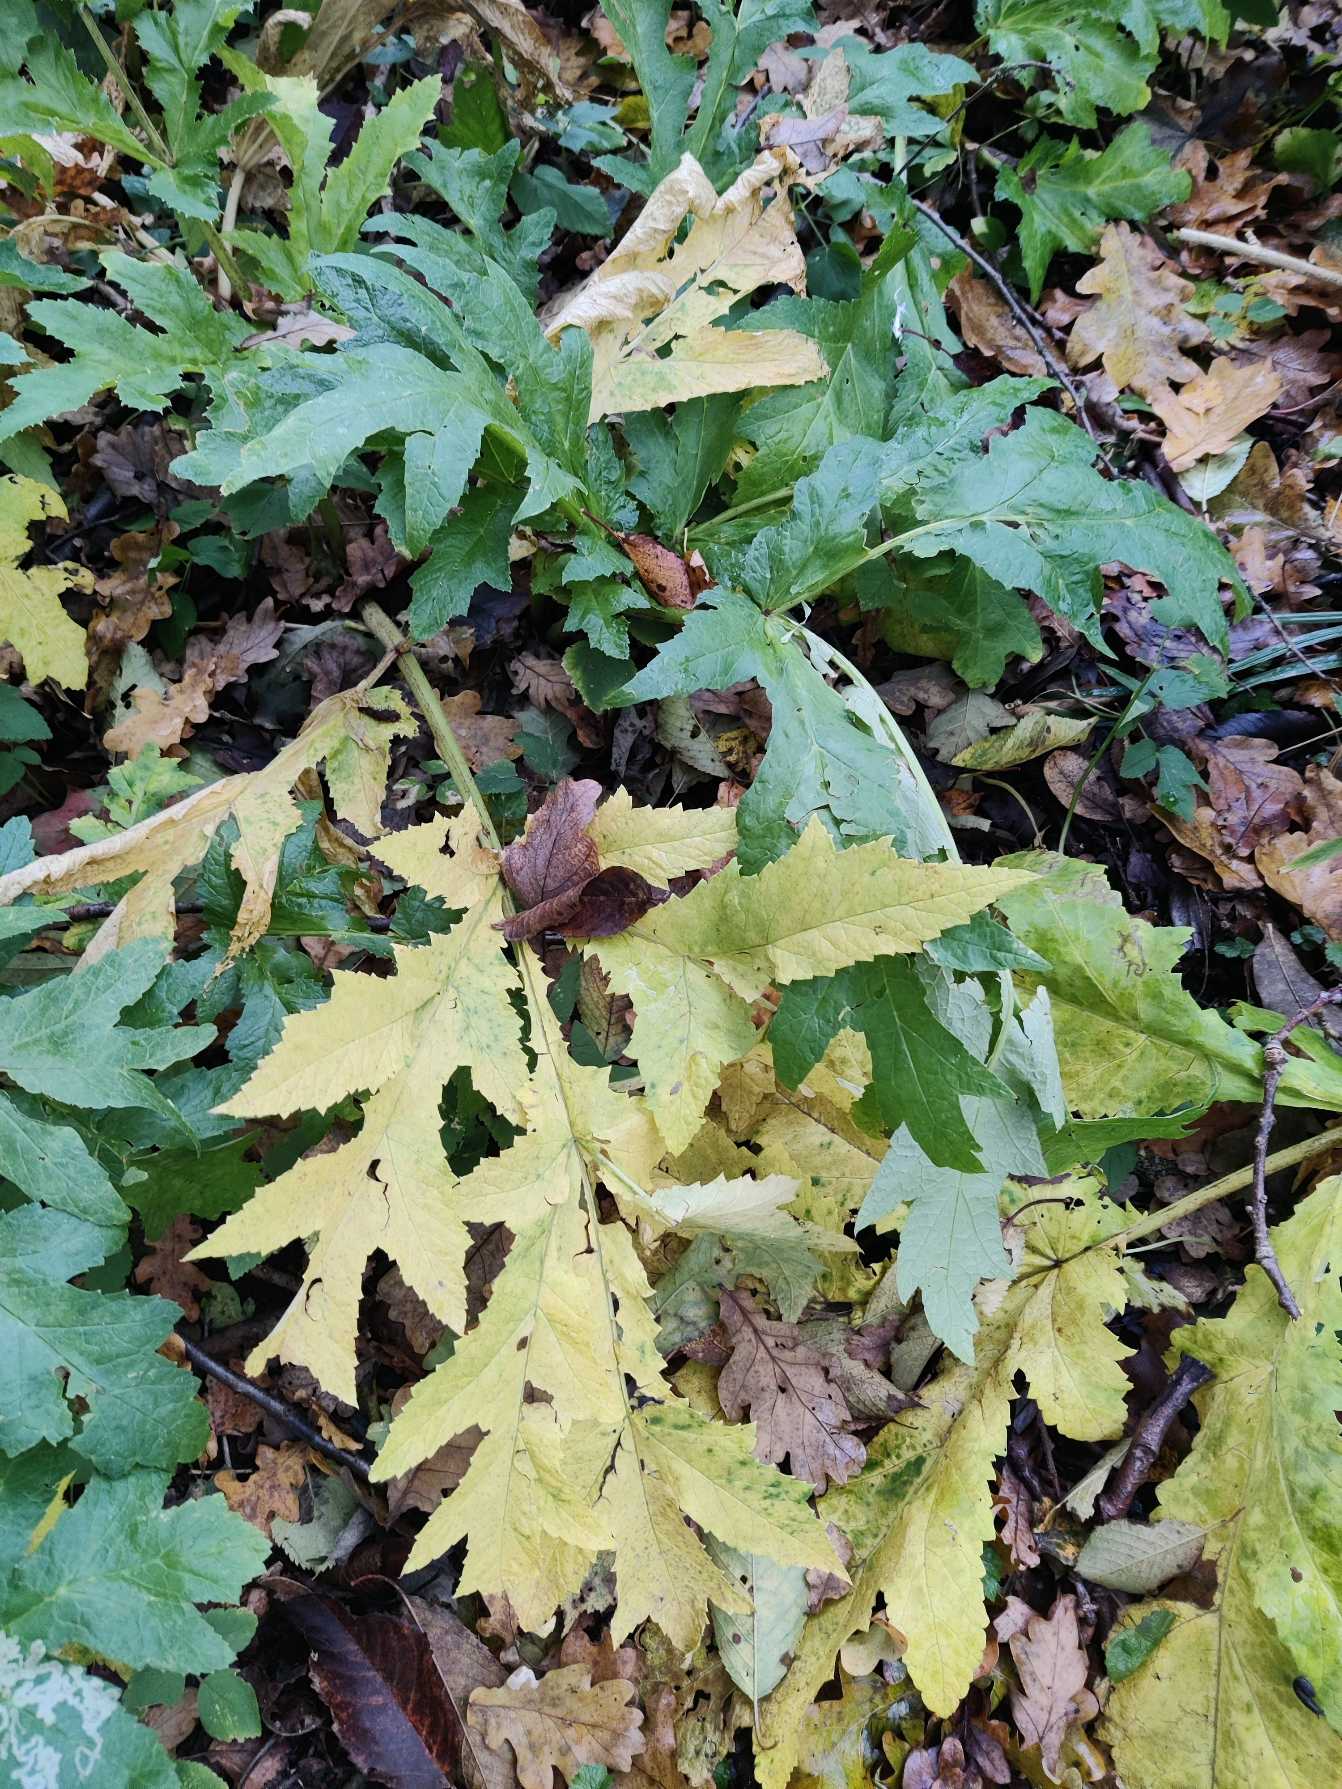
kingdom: Plantae
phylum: Tracheophyta
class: Magnoliopsida
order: Apiales
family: Apiaceae
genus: Heracleum
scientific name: Heracleum mantegazzianum
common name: Kæmpe-bjørneklo
